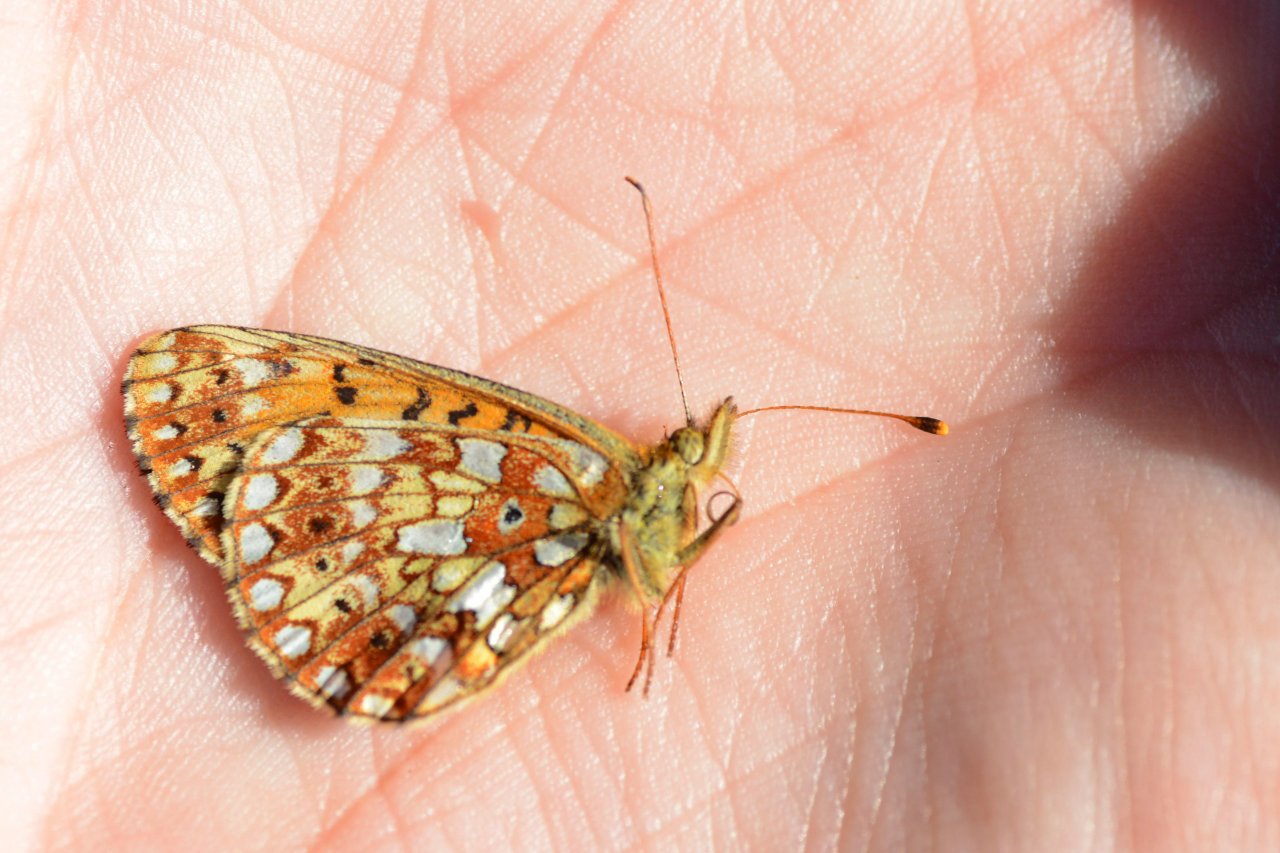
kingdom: Animalia
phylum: Arthropoda
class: Insecta
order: Lepidoptera
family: Nymphalidae
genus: Boloria
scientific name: Boloria selene
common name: Silver-bordered Fritillary
